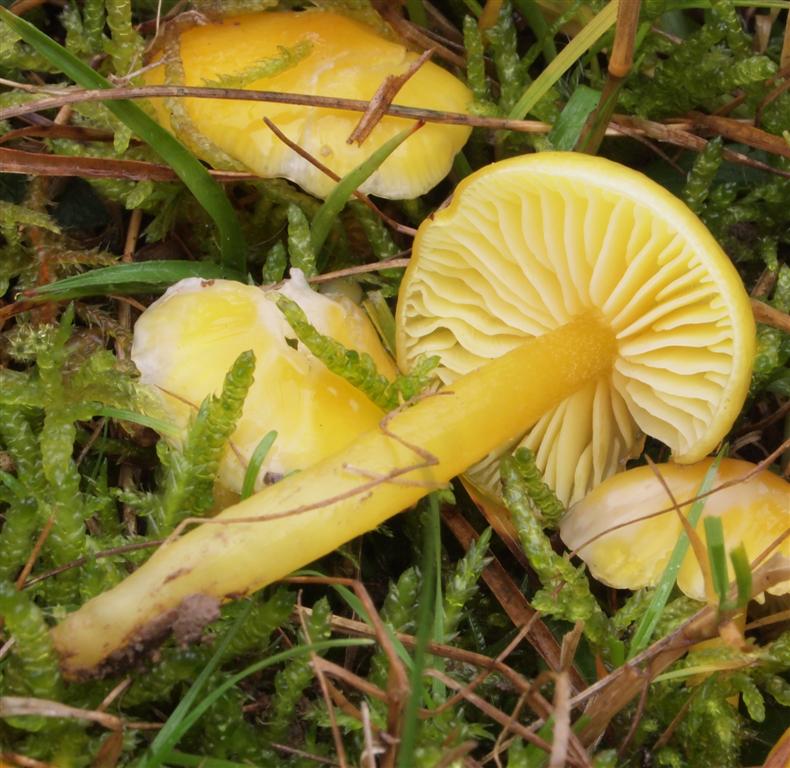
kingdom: Fungi
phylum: Basidiomycota
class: Agaricomycetes
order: Agaricales
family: Hygrophoraceae
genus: Hygrocybe
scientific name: Hygrocybe chlorophana
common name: gul vokshat
